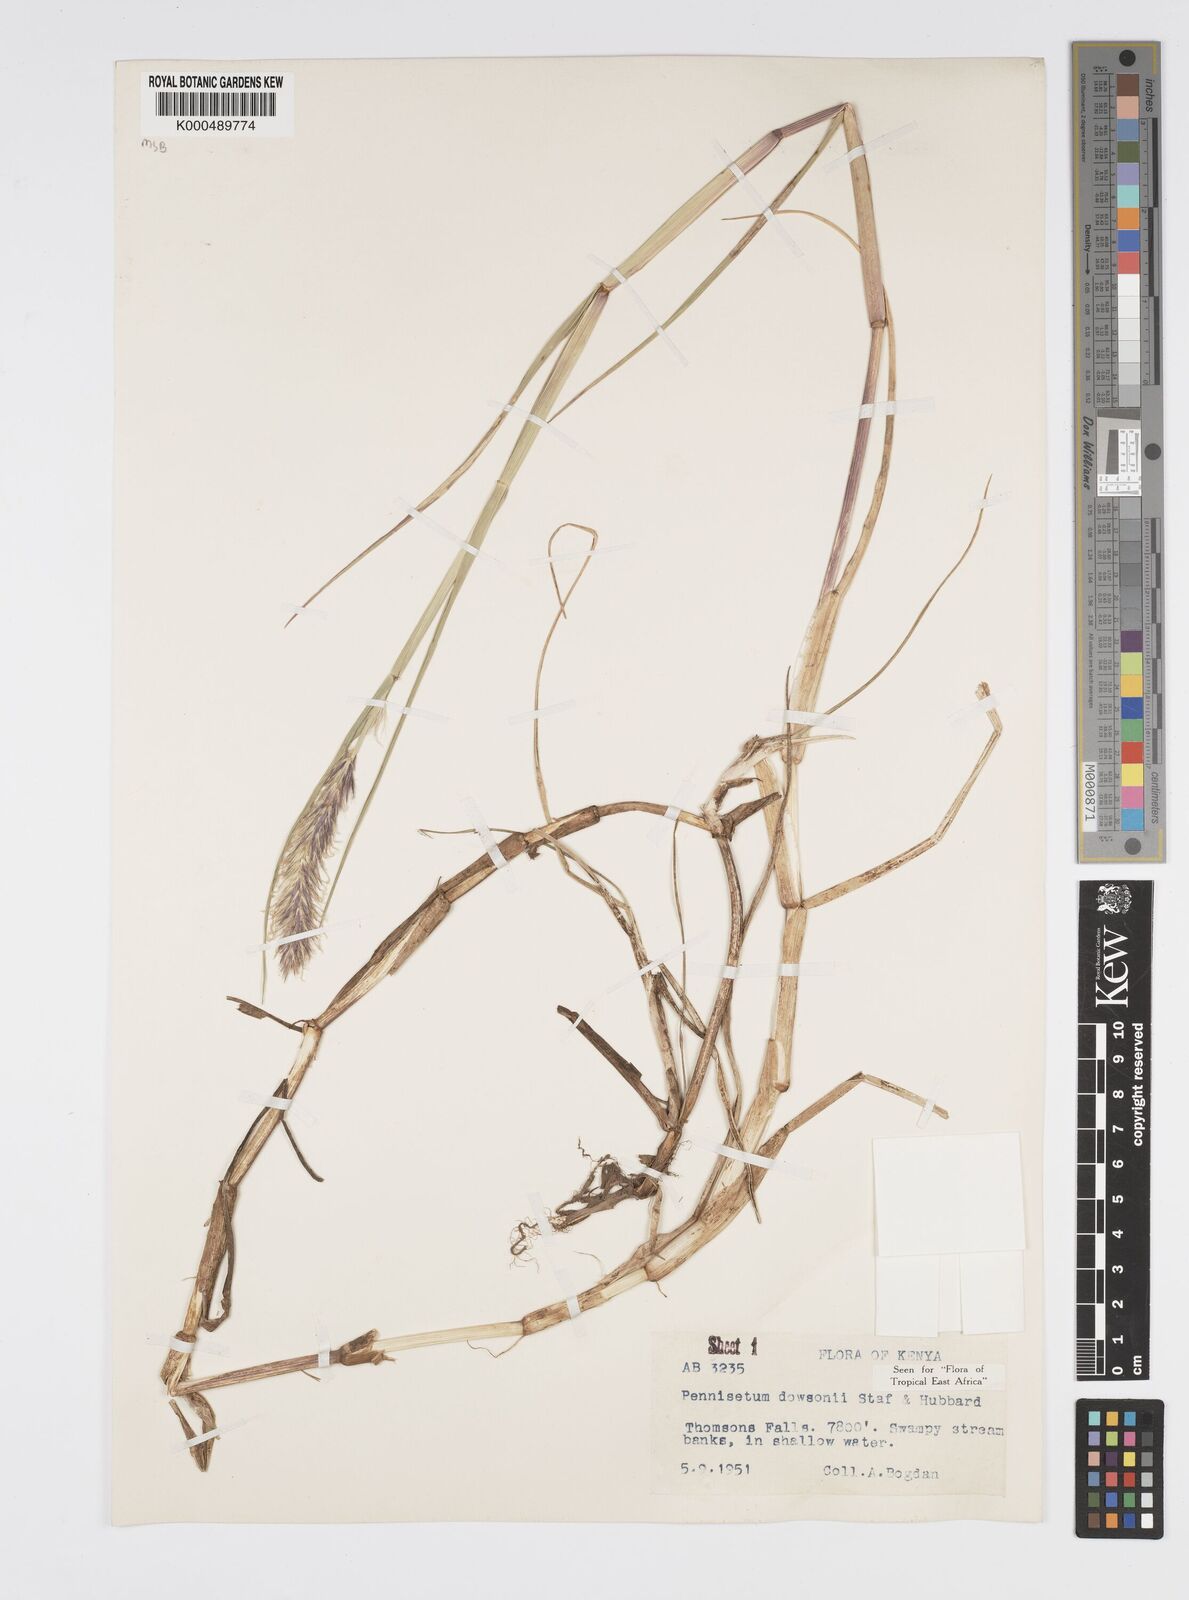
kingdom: Plantae
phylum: Tracheophyta
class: Liliopsida
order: Poales
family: Poaceae
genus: Cenchrus
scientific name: Cenchrus Pennisetum spec
